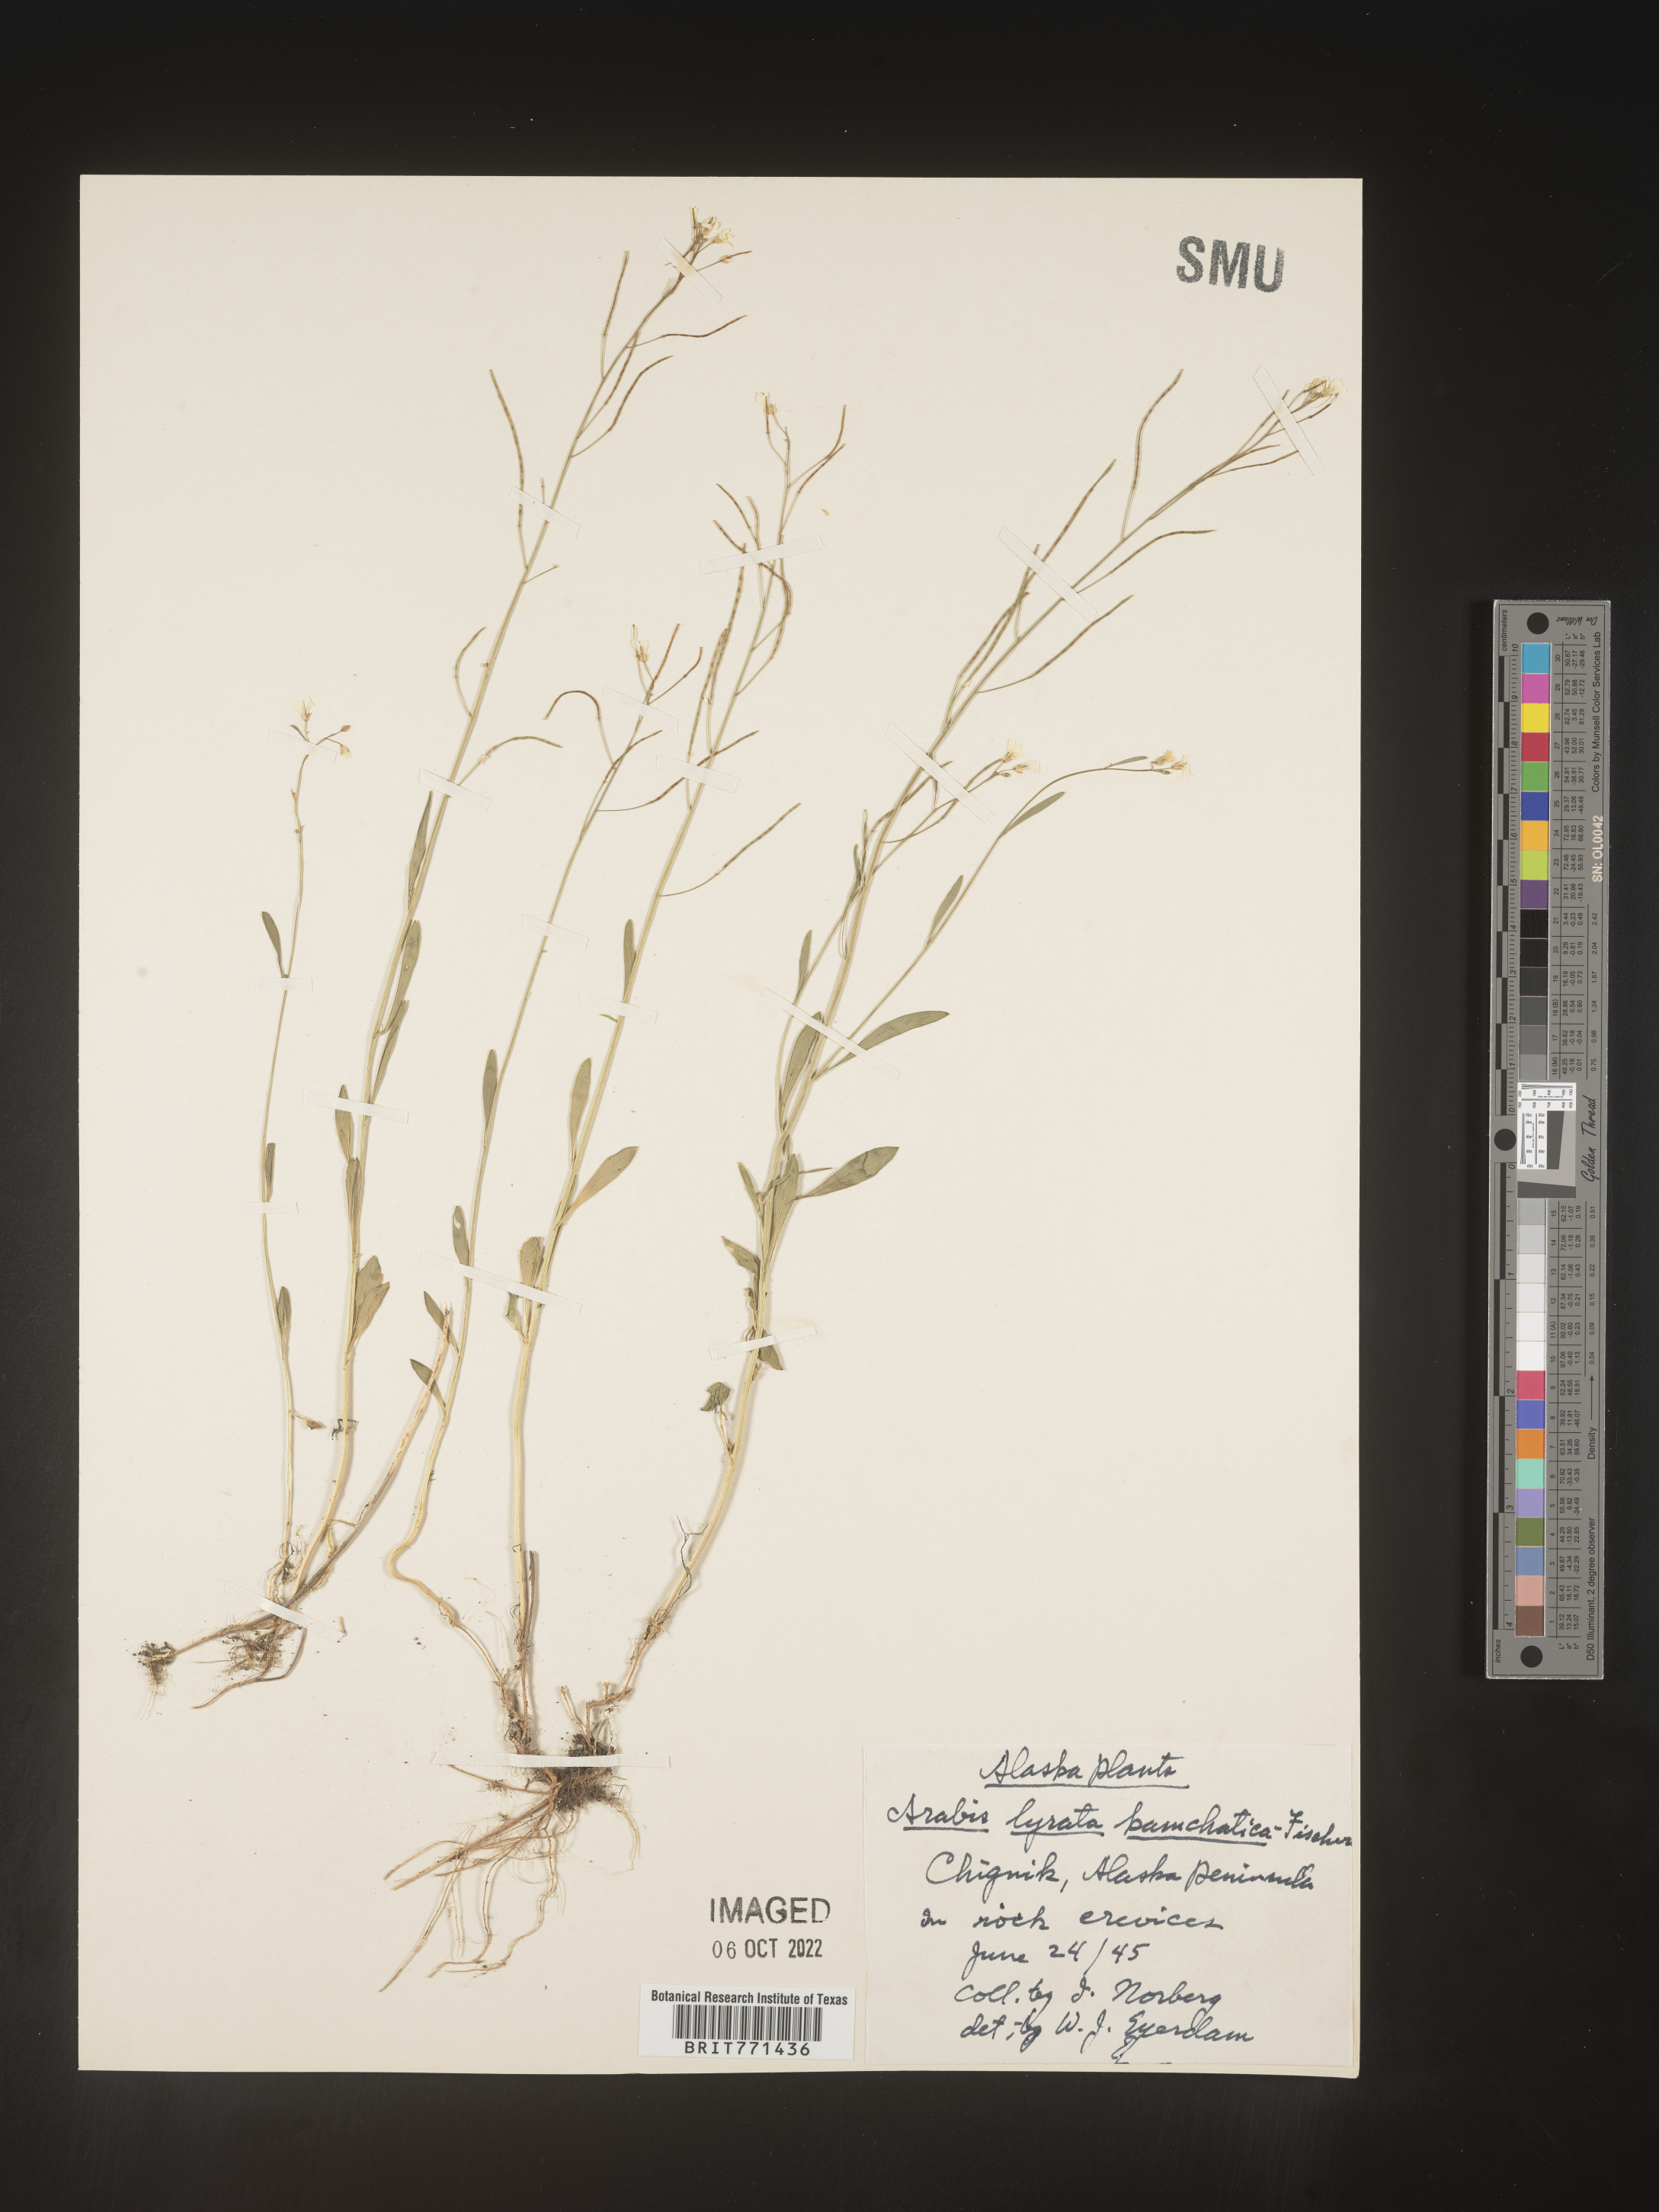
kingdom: Plantae
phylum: Tracheophyta
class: Magnoliopsida
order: Brassicales
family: Brassicaceae
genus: Arabidopsis
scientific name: Arabidopsis lyrata
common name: Lyrate rockcress
